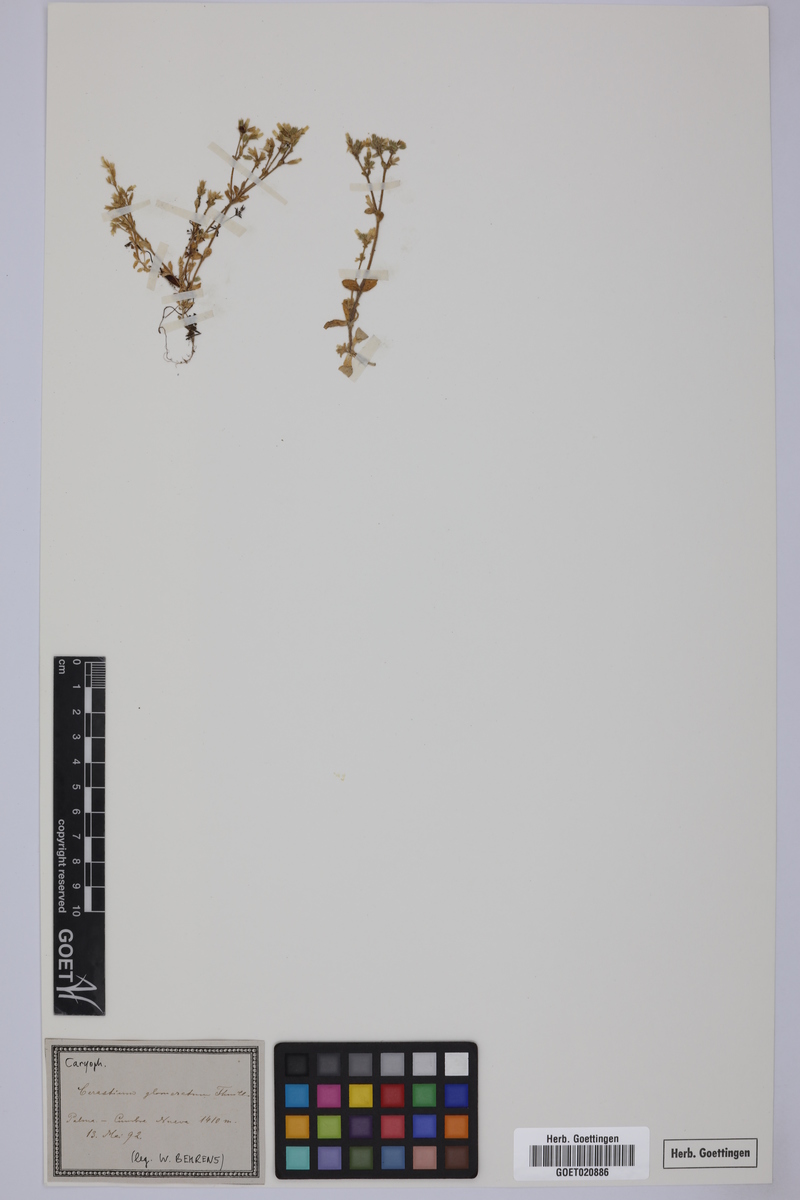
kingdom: Plantae
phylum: Tracheophyta
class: Magnoliopsida
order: Caryophyllales
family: Caryophyllaceae
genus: Cerastium
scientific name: Cerastium glomeratum
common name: Sticky chickweed
